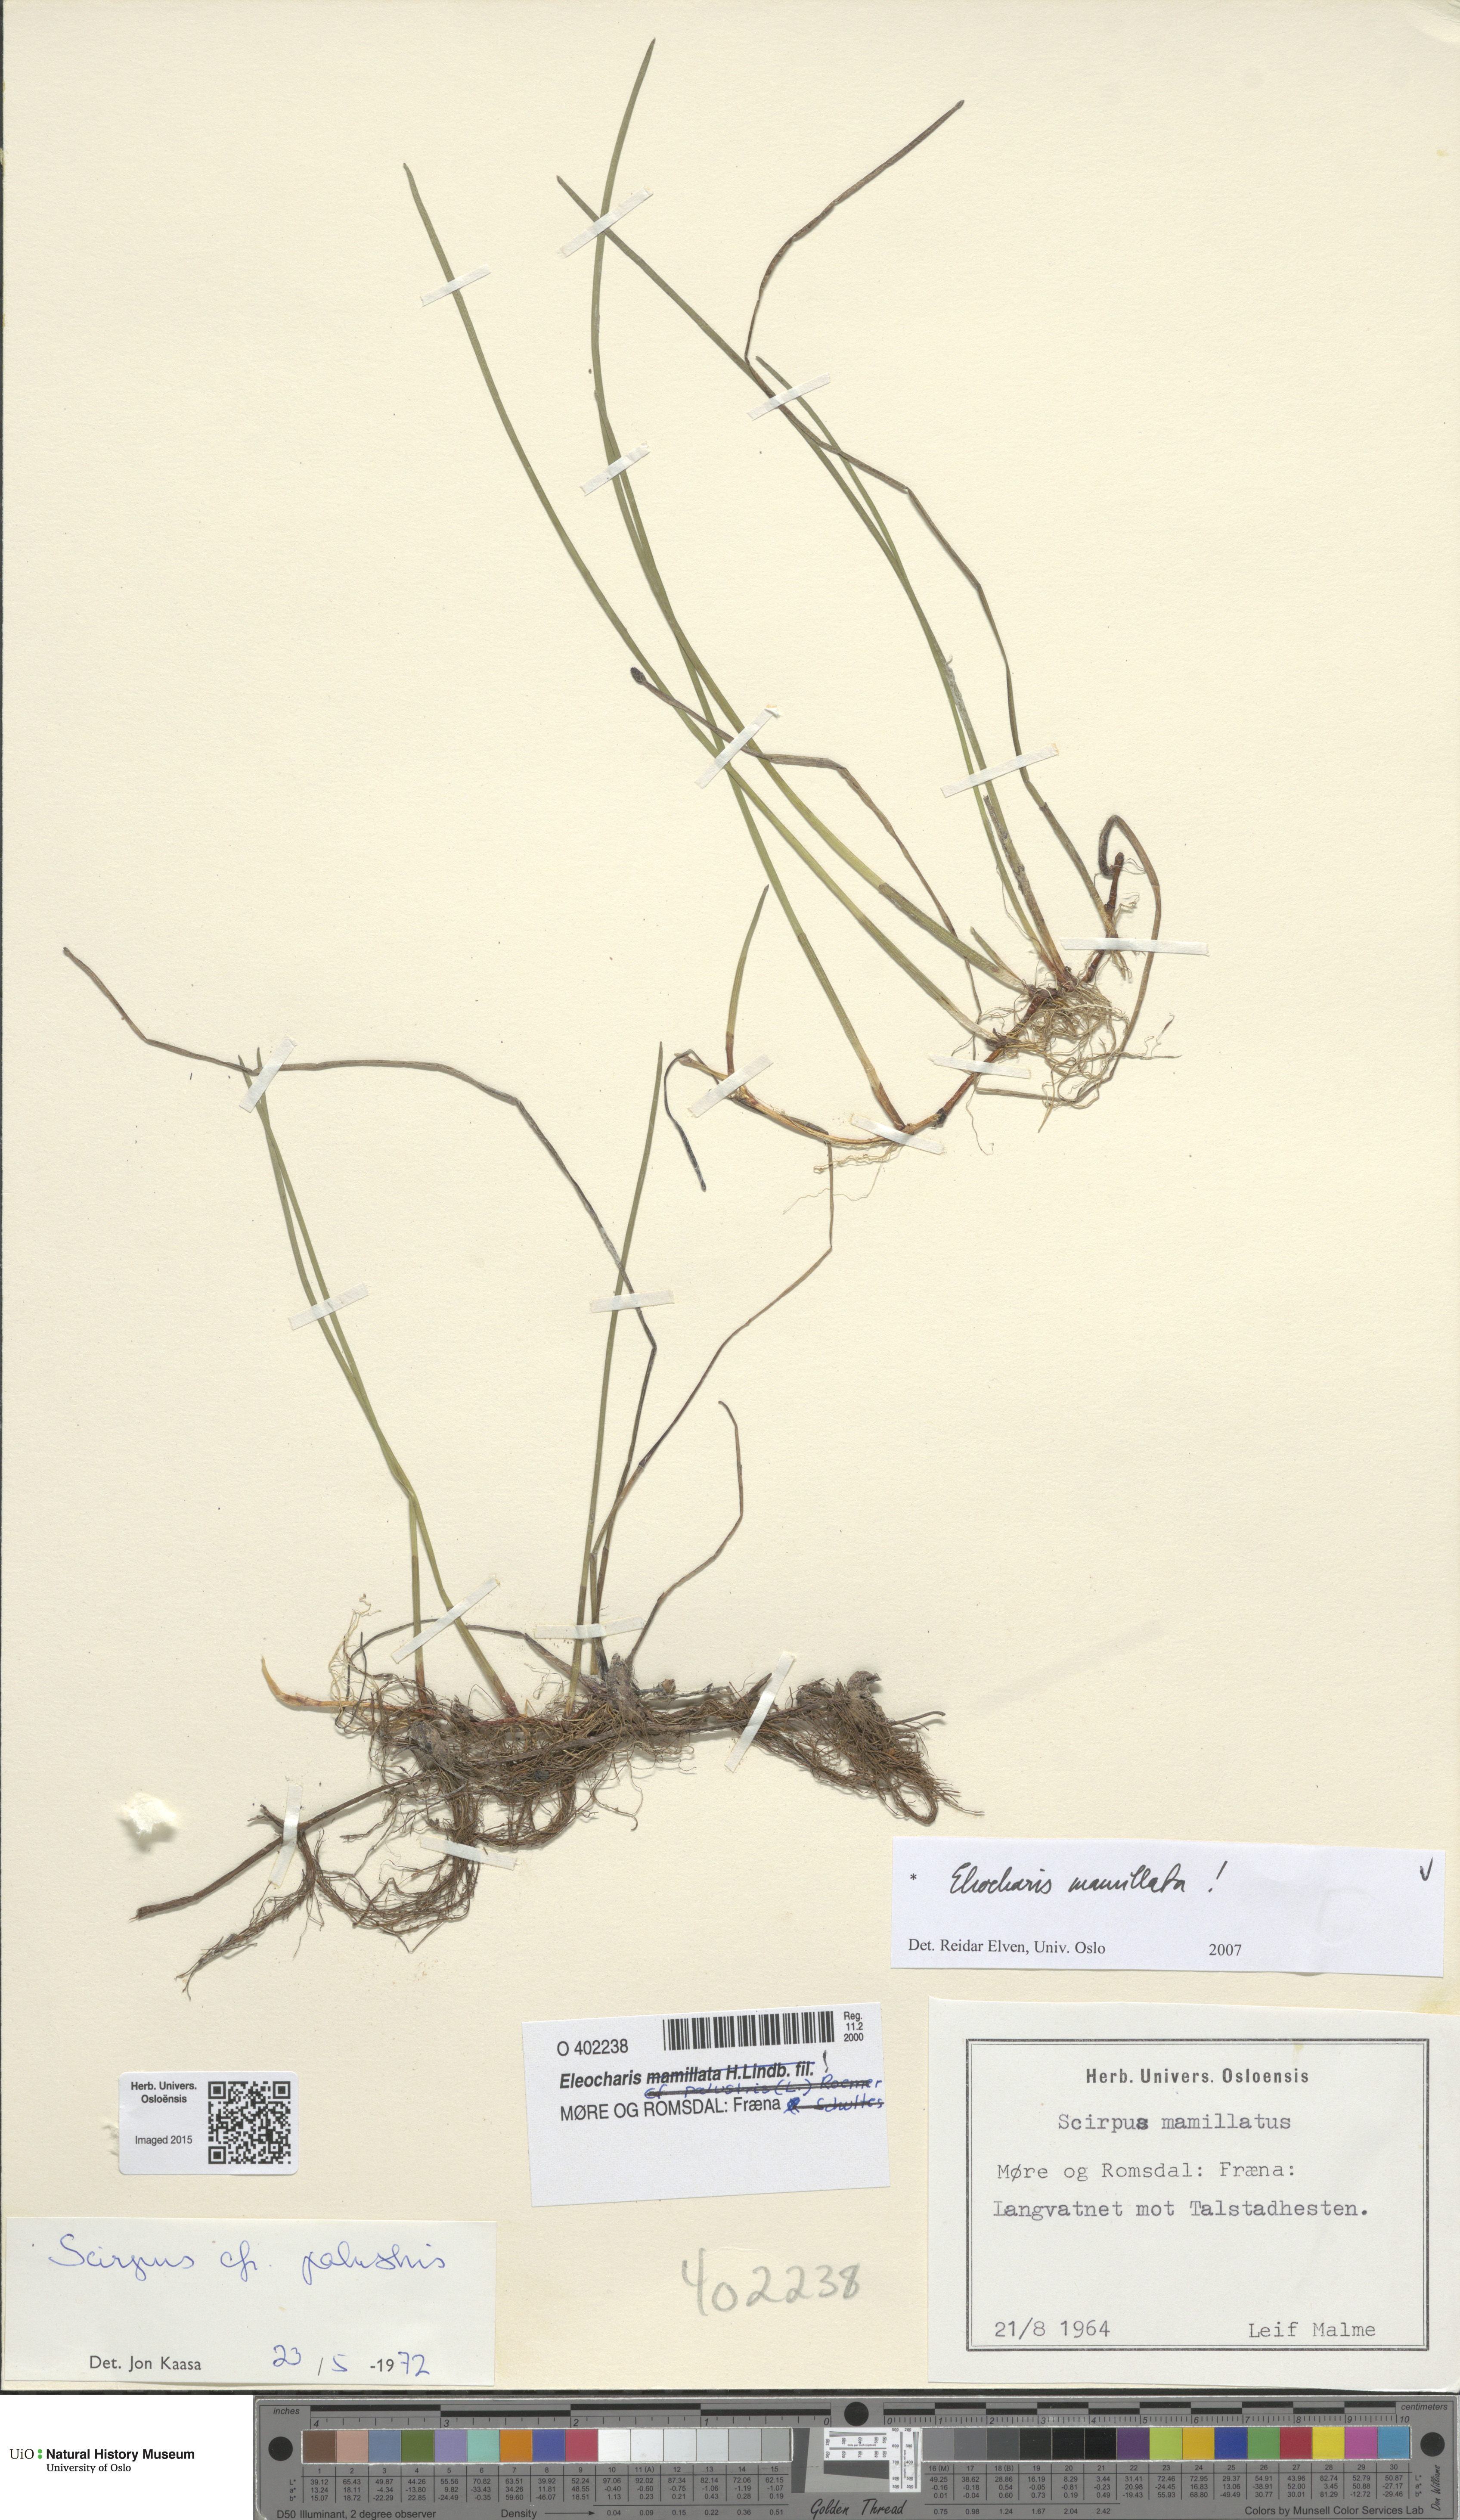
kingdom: Plantae
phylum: Tracheophyta
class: Liliopsida
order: Poales
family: Cyperaceae
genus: Eleocharis
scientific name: Eleocharis mamillata
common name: Northern spike-rush
